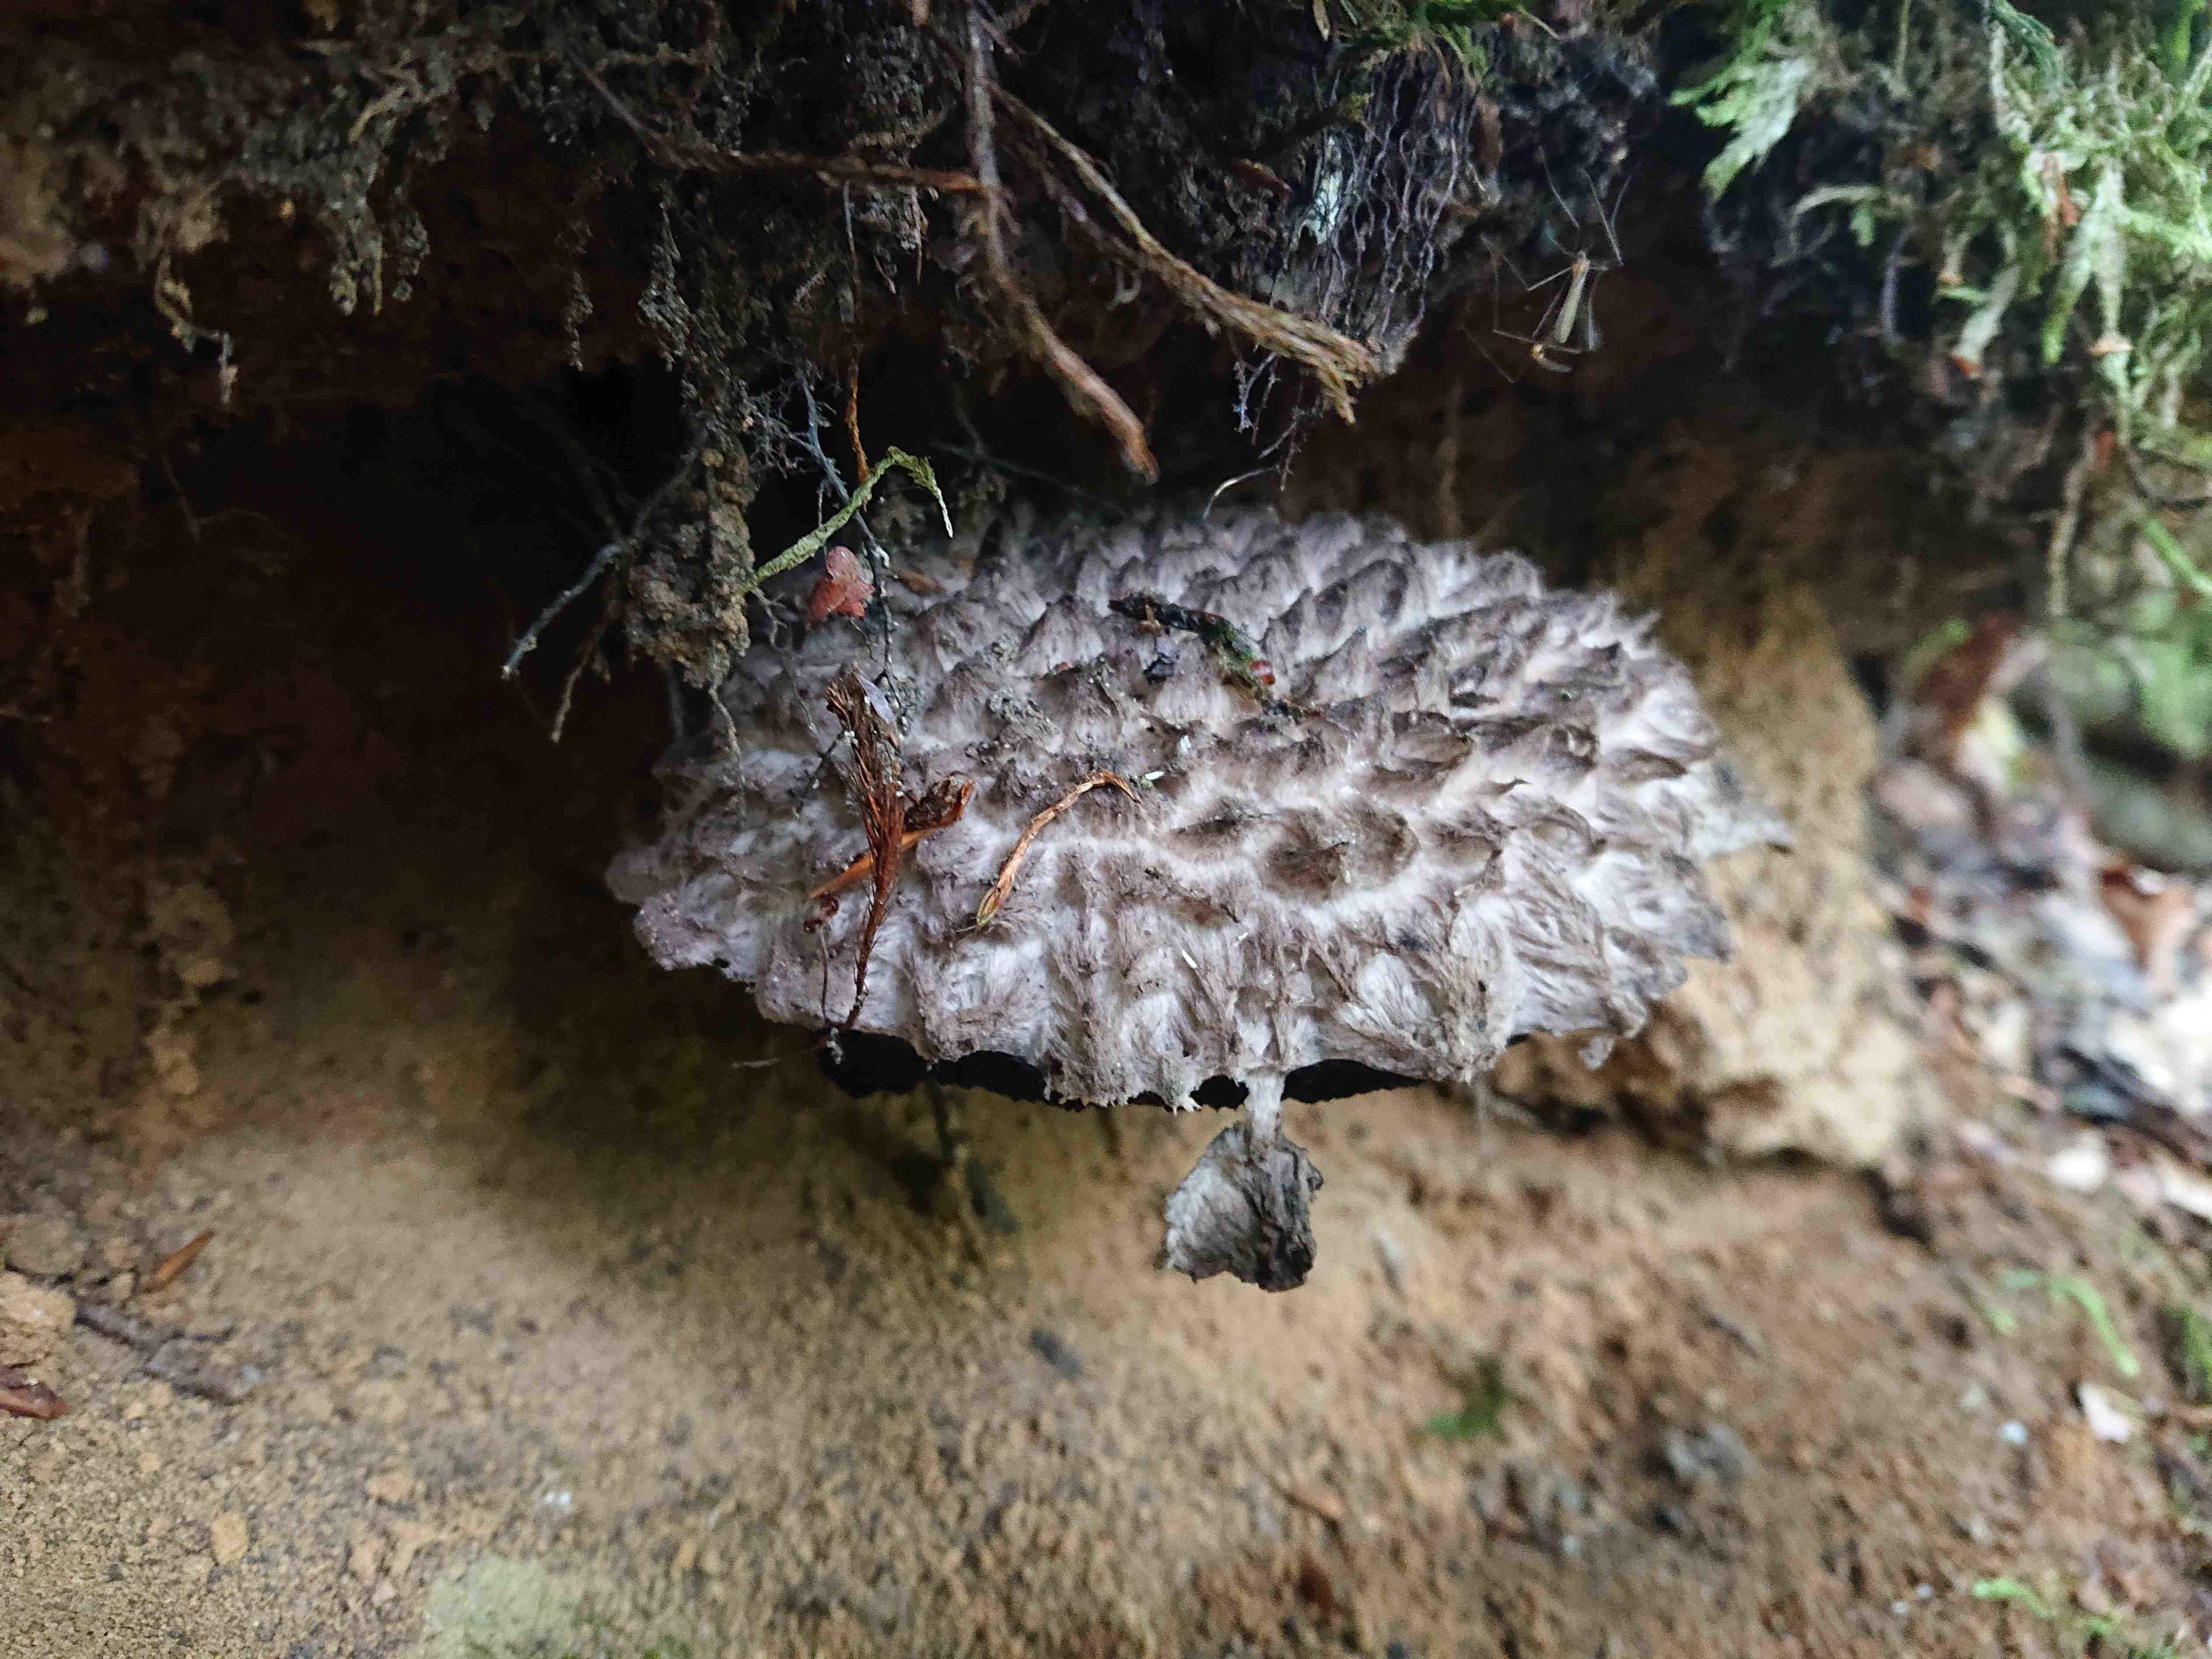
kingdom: Fungi
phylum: Basidiomycota
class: Agaricomycetes
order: Boletales
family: Boletaceae
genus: Strobilomyces
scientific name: Strobilomyces strobilaceus
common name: koglerørhat
